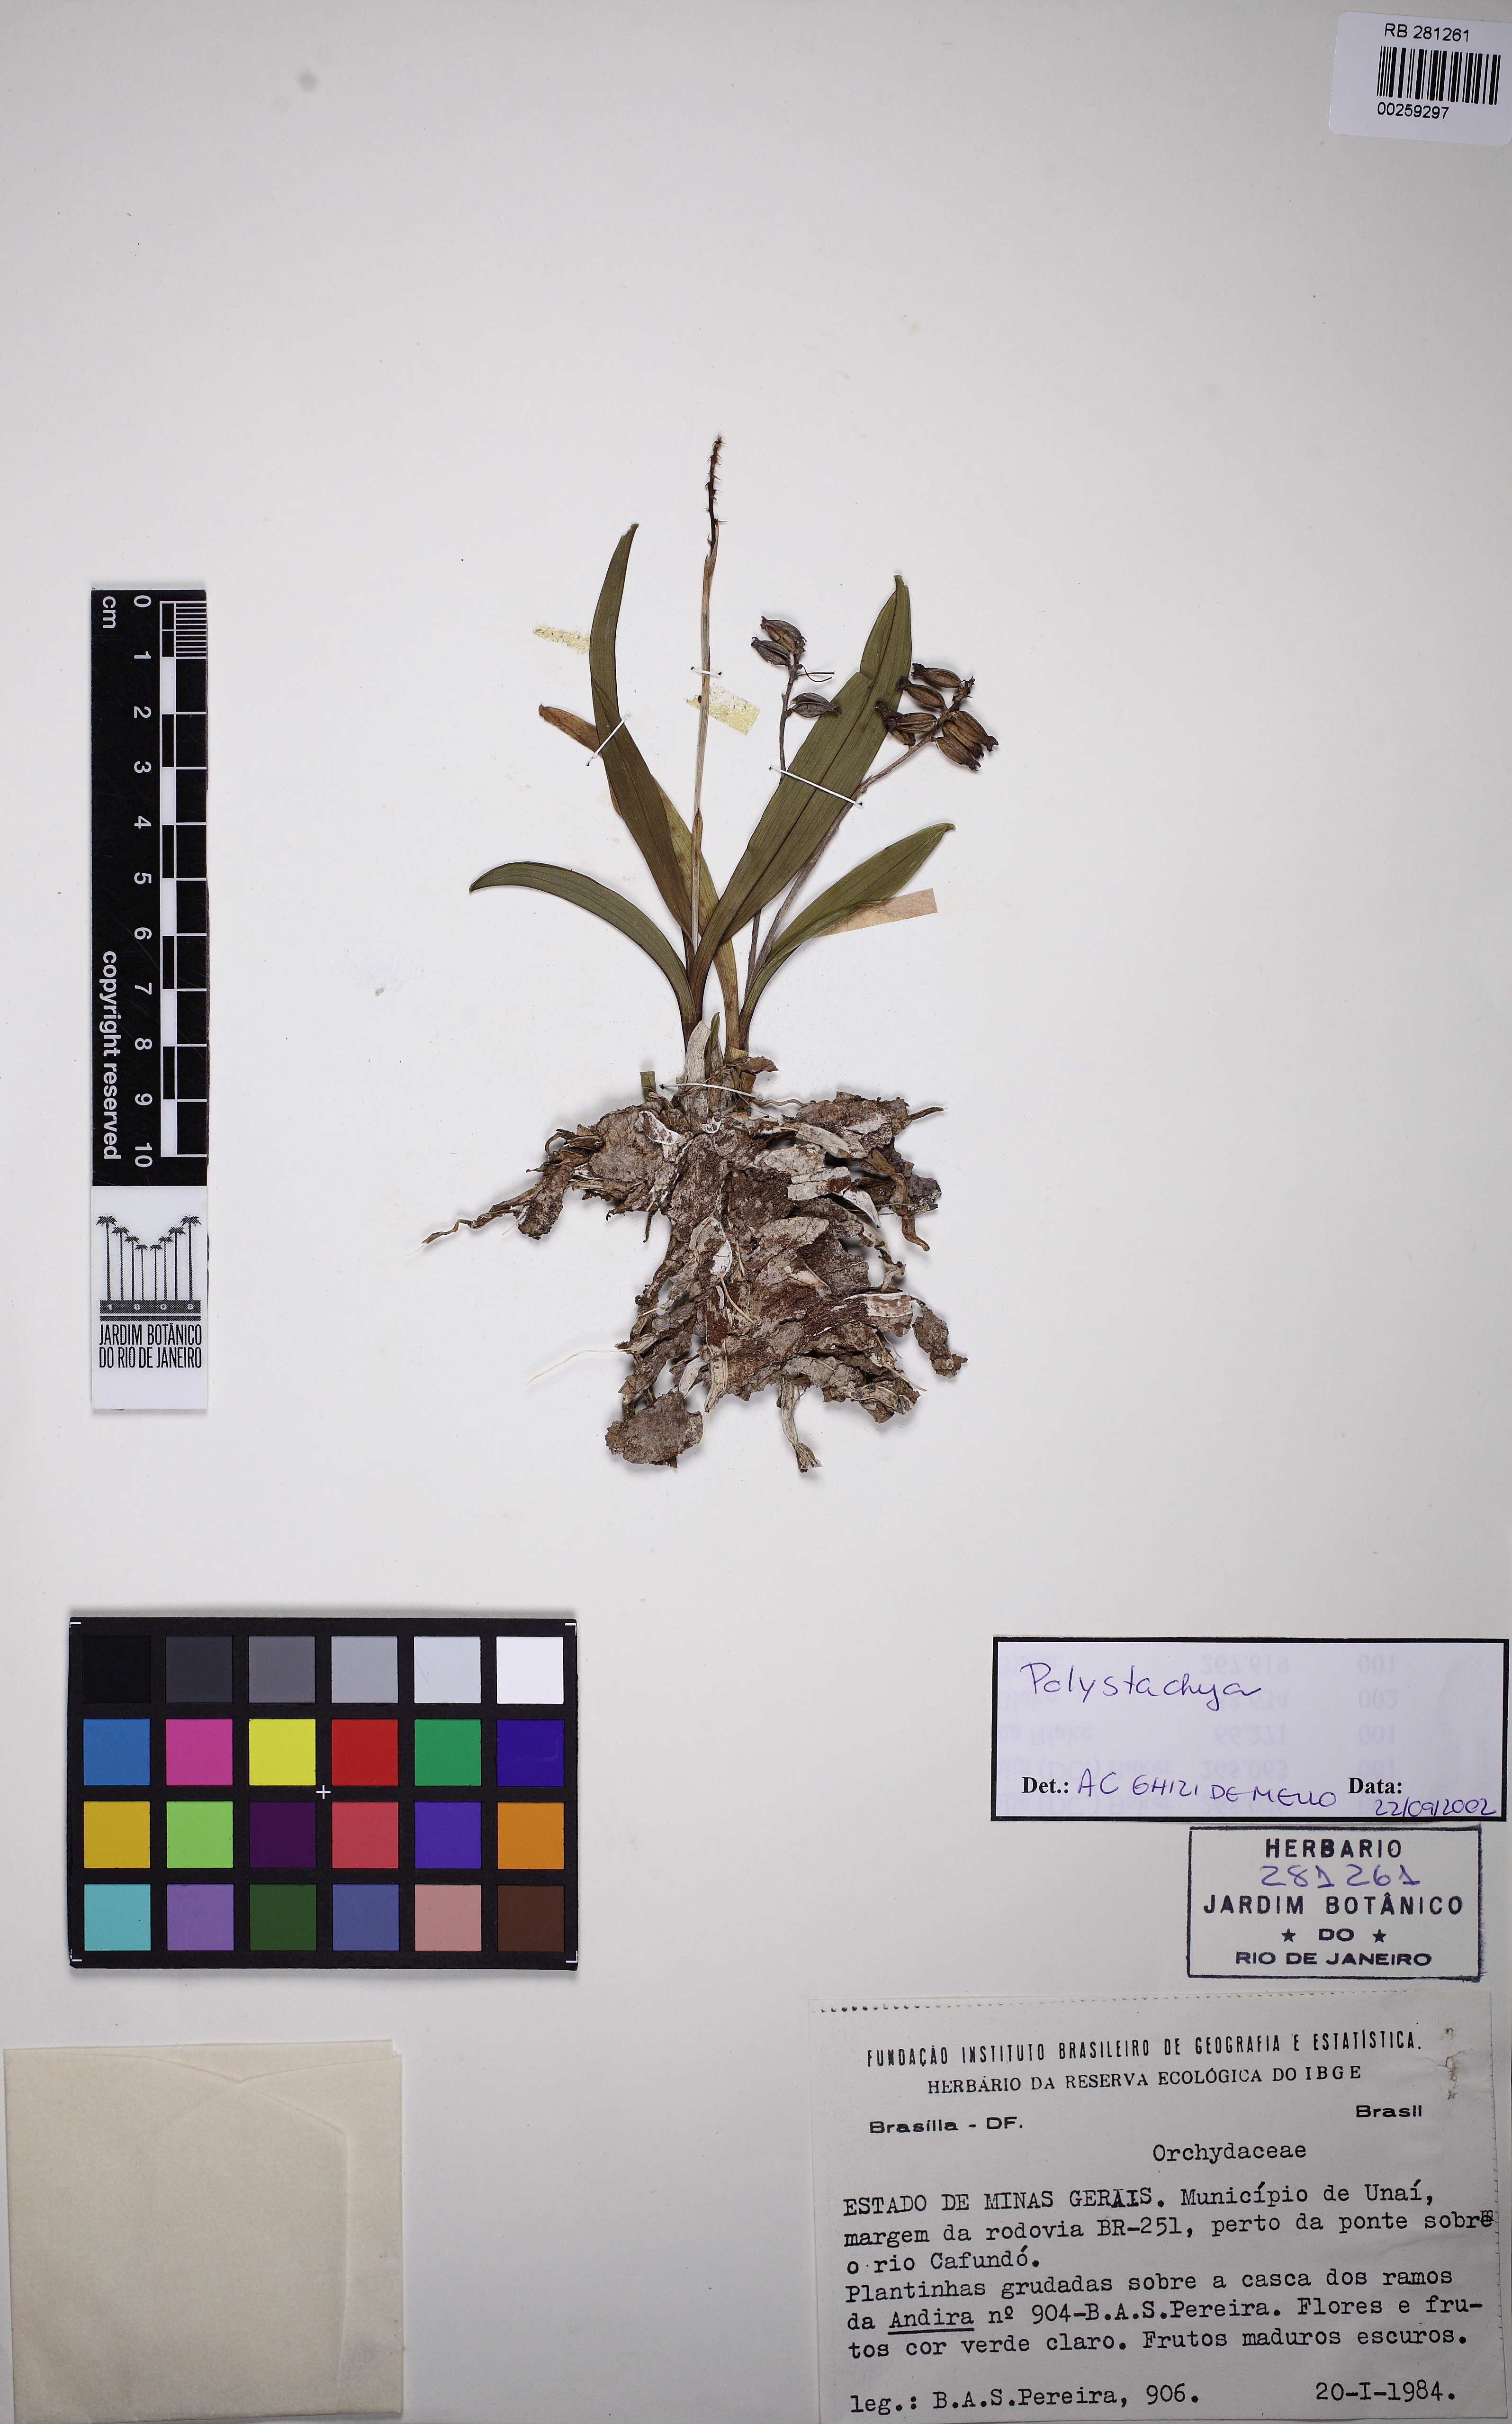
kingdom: Plantae
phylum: Tracheophyta
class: Liliopsida
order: Asparagales
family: Orchidaceae
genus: Polystachya
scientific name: Polystachya
